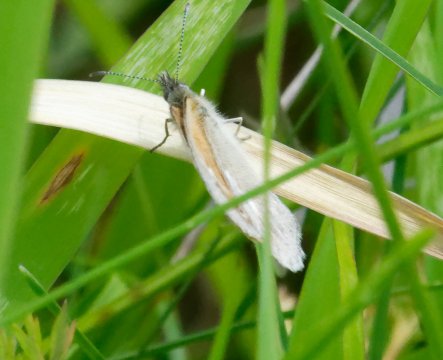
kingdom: Animalia
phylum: Arthropoda
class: Insecta
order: Lepidoptera
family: Nymphalidae
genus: Coenonympha
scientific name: Coenonympha california
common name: California Ringlet
